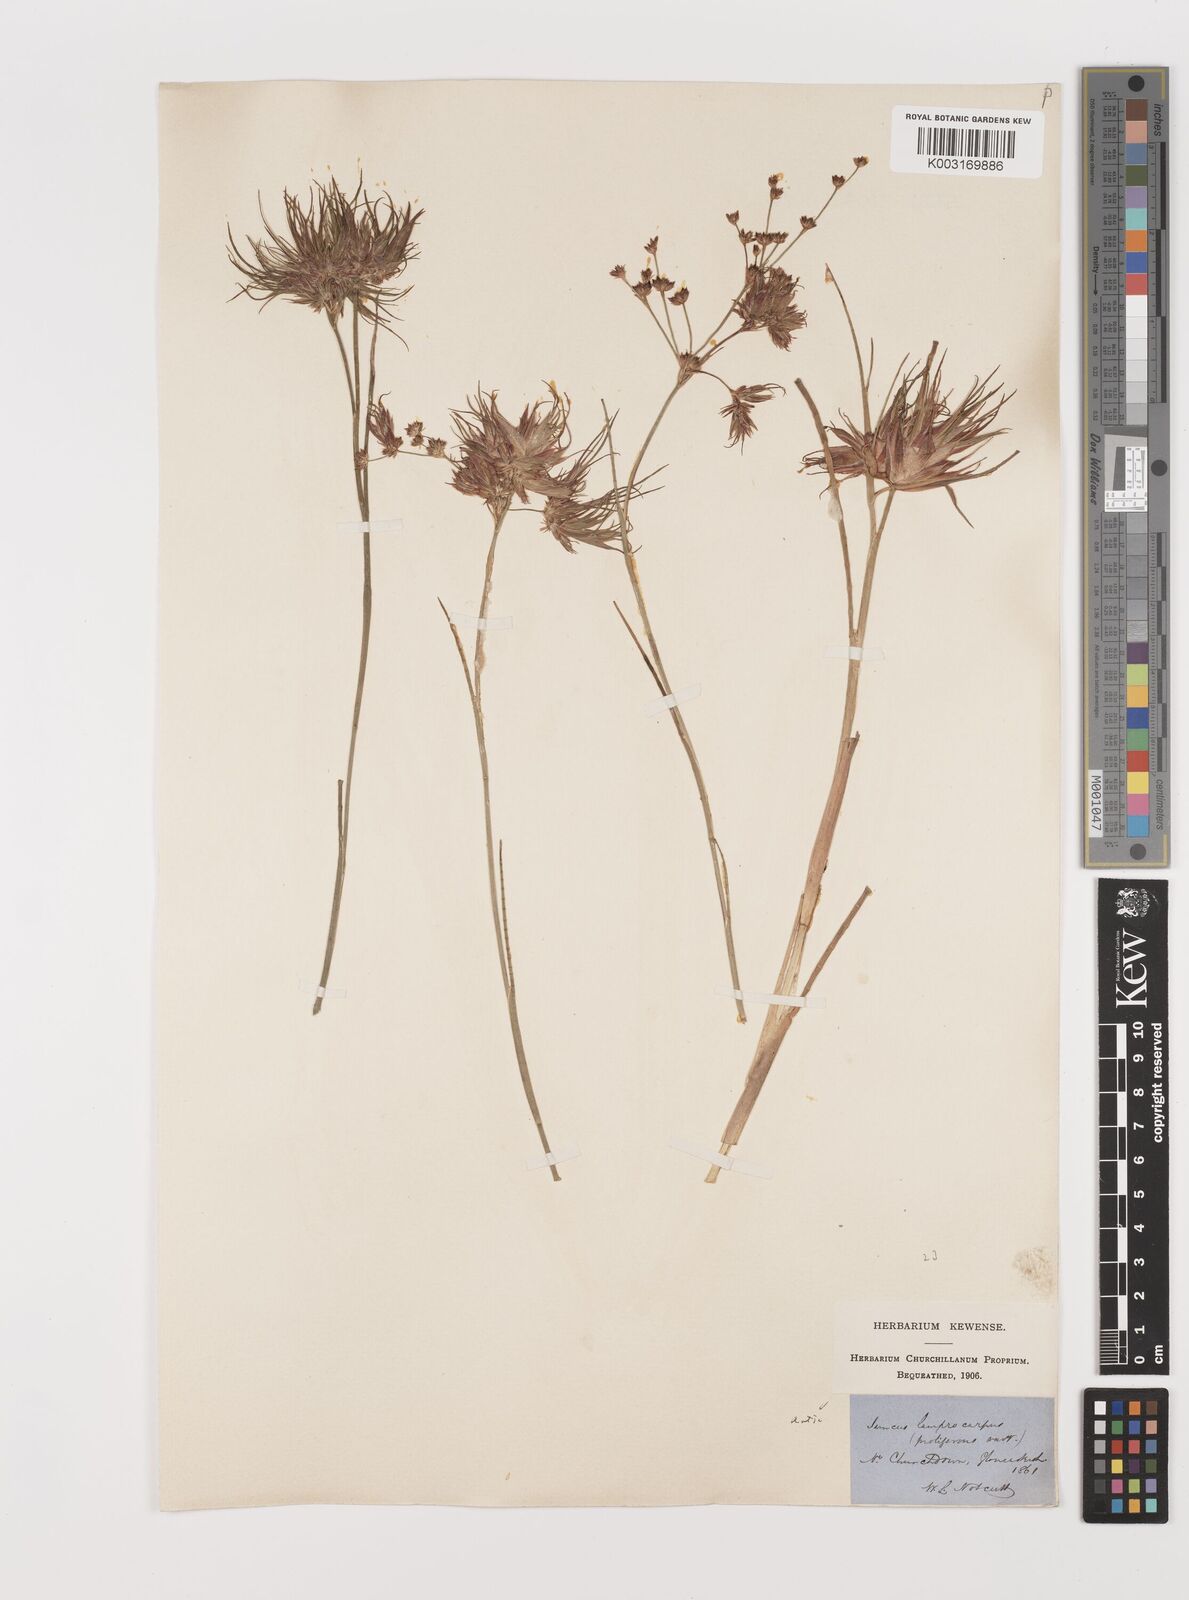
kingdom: Plantae
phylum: Tracheophyta
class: Liliopsida
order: Poales
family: Juncaceae
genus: Juncus
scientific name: Juncus articulatus
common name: Jointed rush
